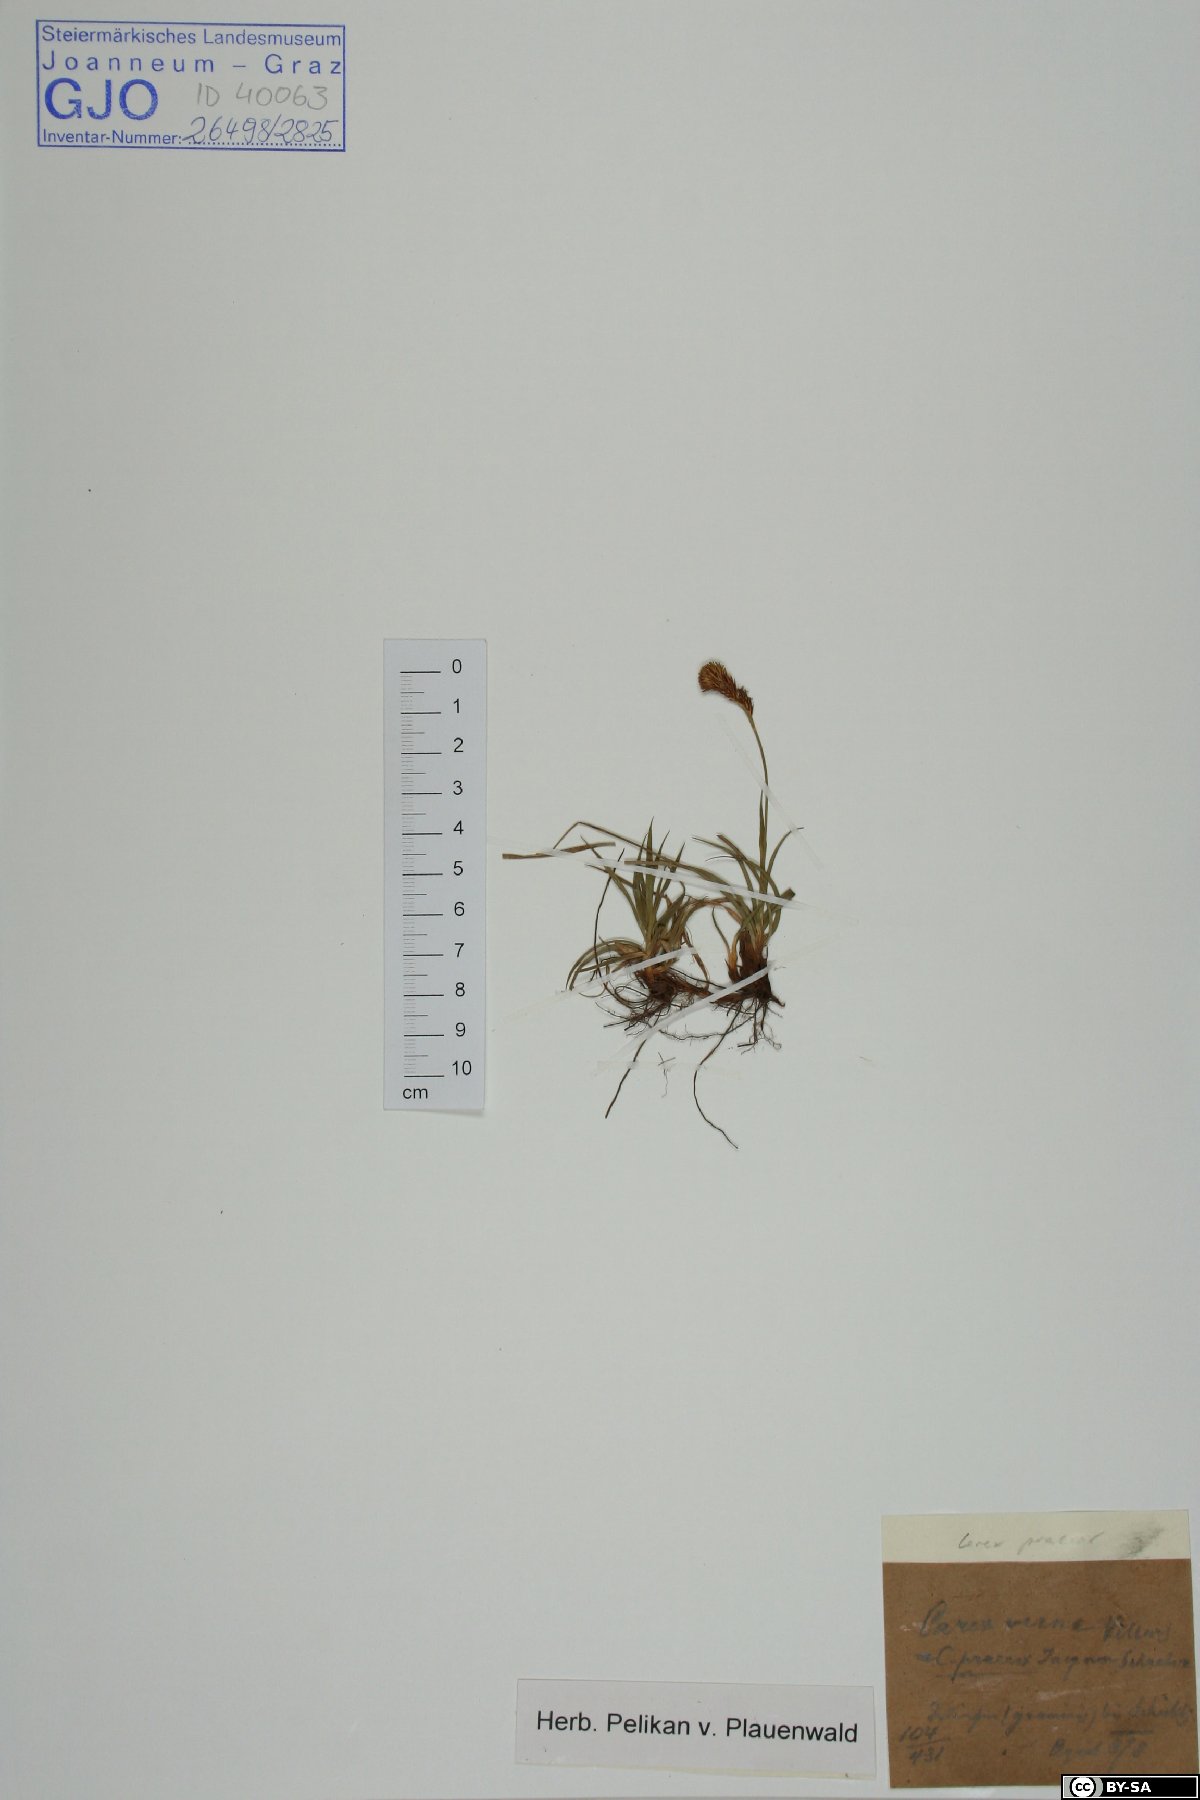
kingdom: Plantae
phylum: Tracheophyta
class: Liliopsida
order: Poales
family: Cyperaceae
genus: Carex
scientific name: Carex caryophyllea
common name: Spring sedge
